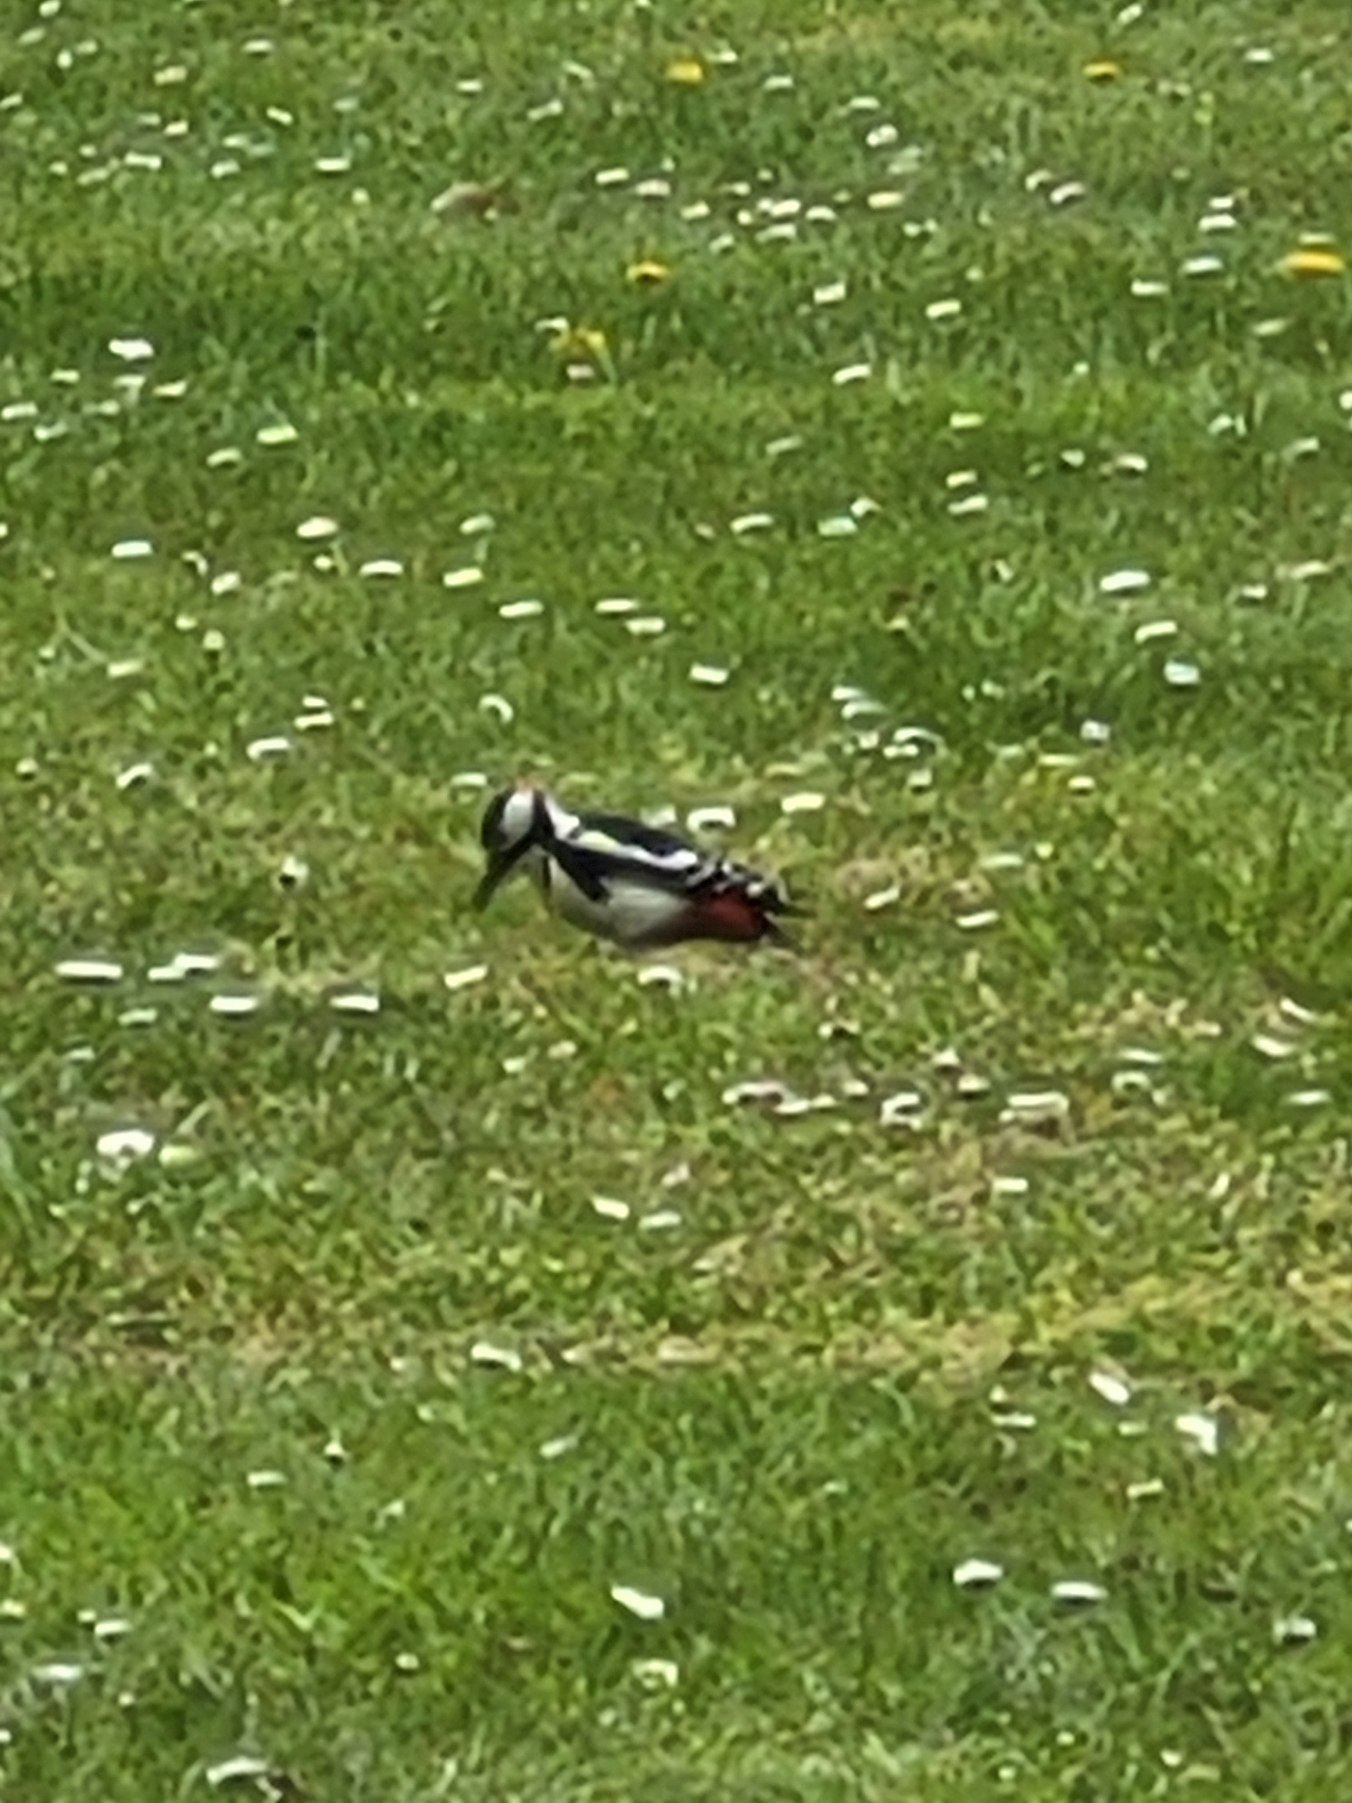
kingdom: Animalia
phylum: Chordata
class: Aves
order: Piciformes
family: Picidae
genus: Dendrocopos
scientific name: Dendrocopos major
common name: Stor flagspætte
